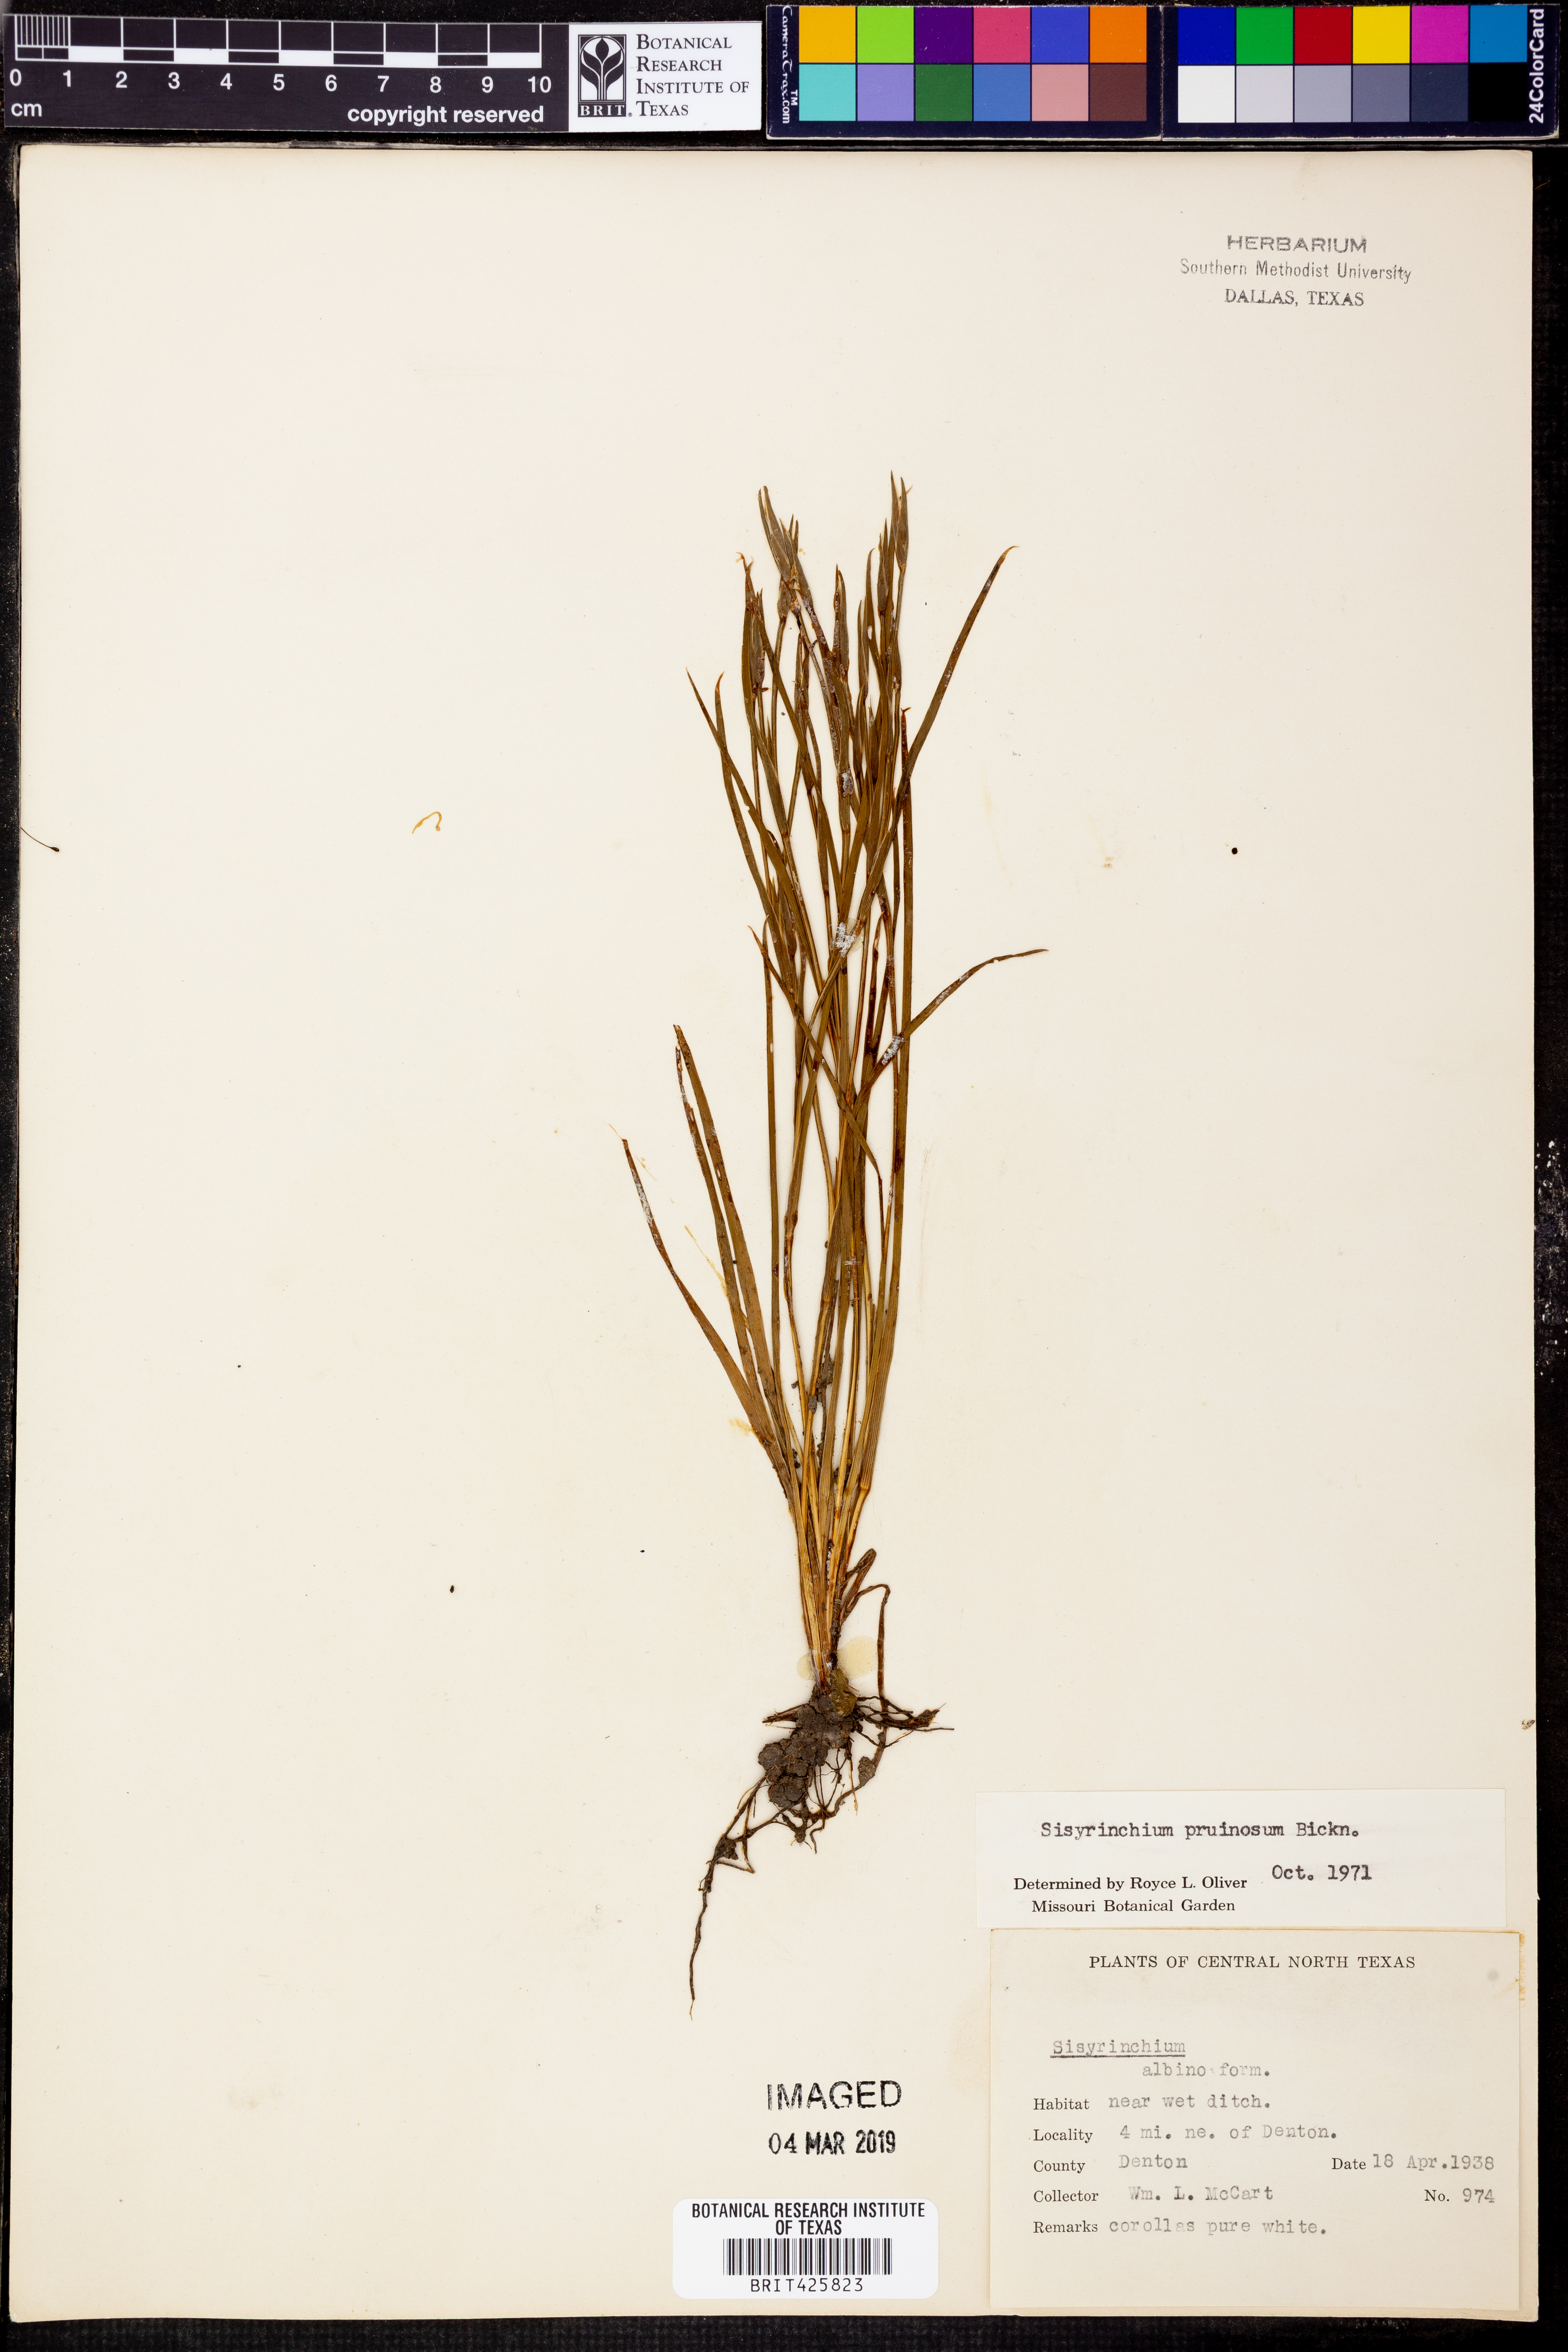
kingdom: Plantae
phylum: Tracheophyta
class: Liliopsida
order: Asparagales
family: Iridaceae
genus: Sisyrinchium
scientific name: Sisyrinchium pruinosum
